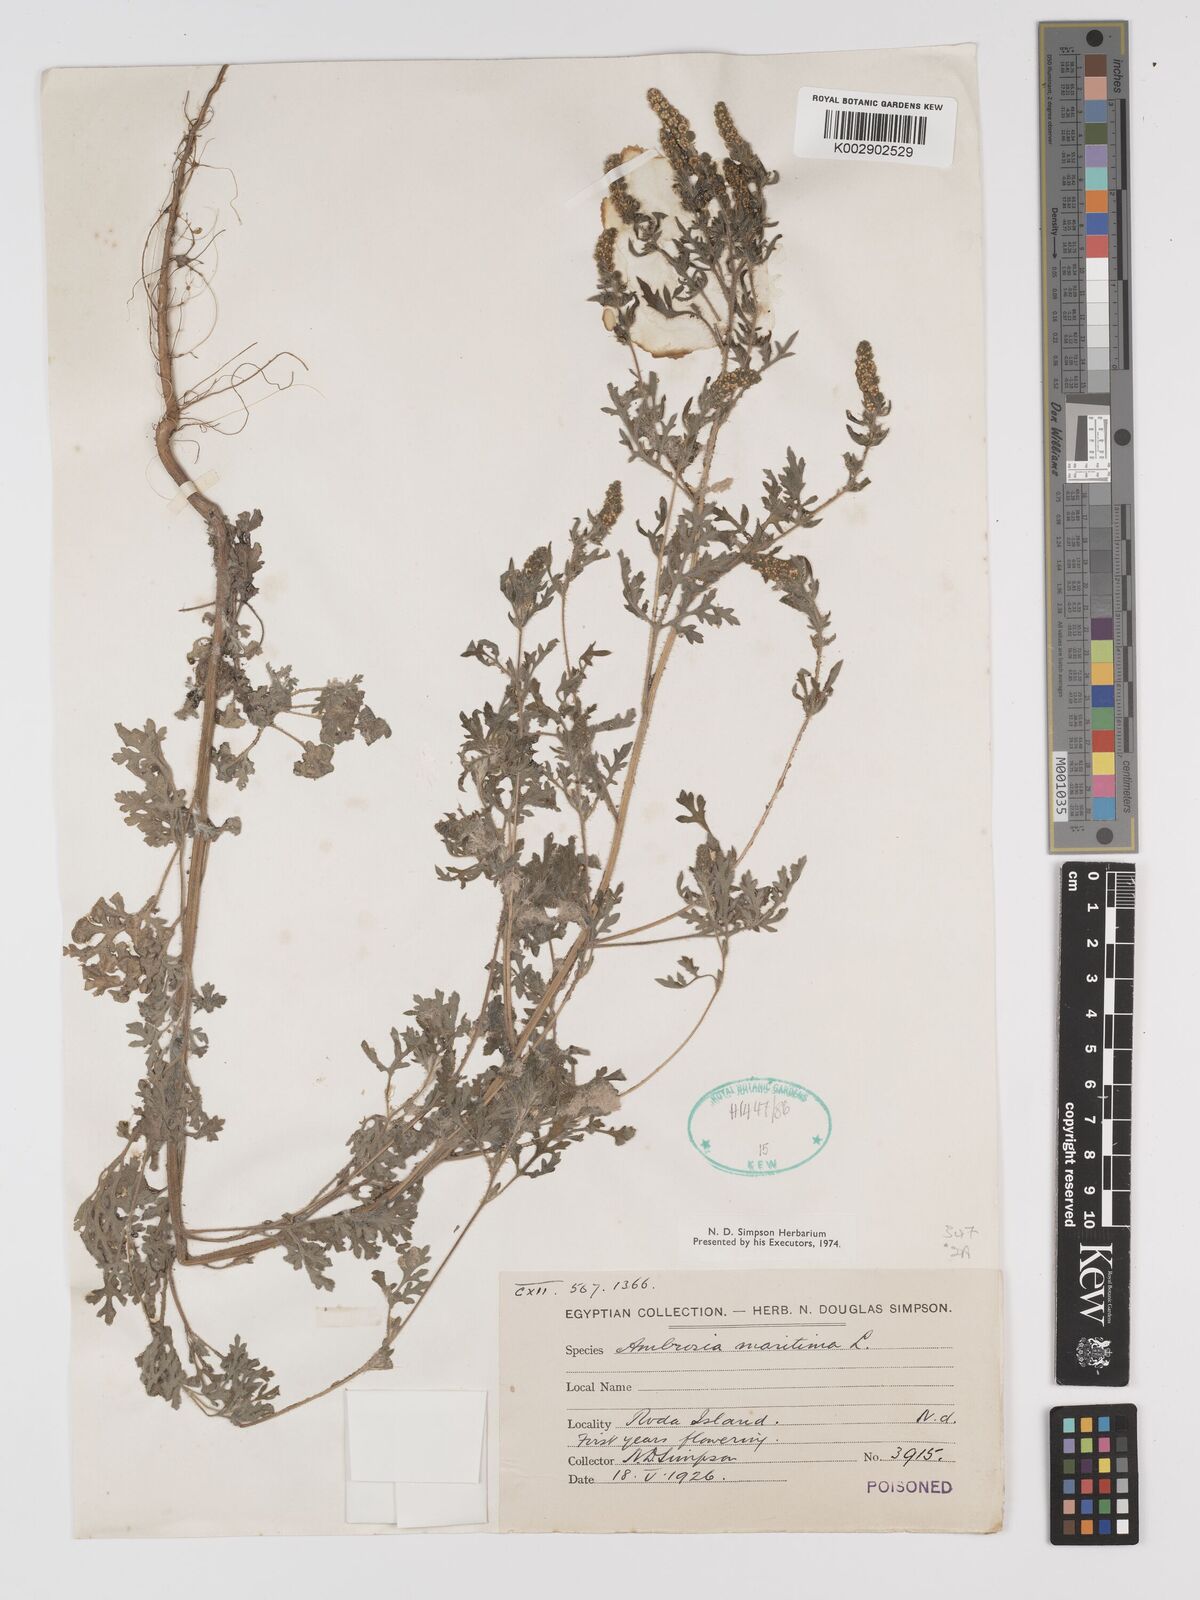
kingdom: Plantae
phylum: Tracheophyta
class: Magnoliopsida
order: Asterales
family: Asteraceae
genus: Ambrosia
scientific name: Ambrosia maritima
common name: Sea ambrosia
